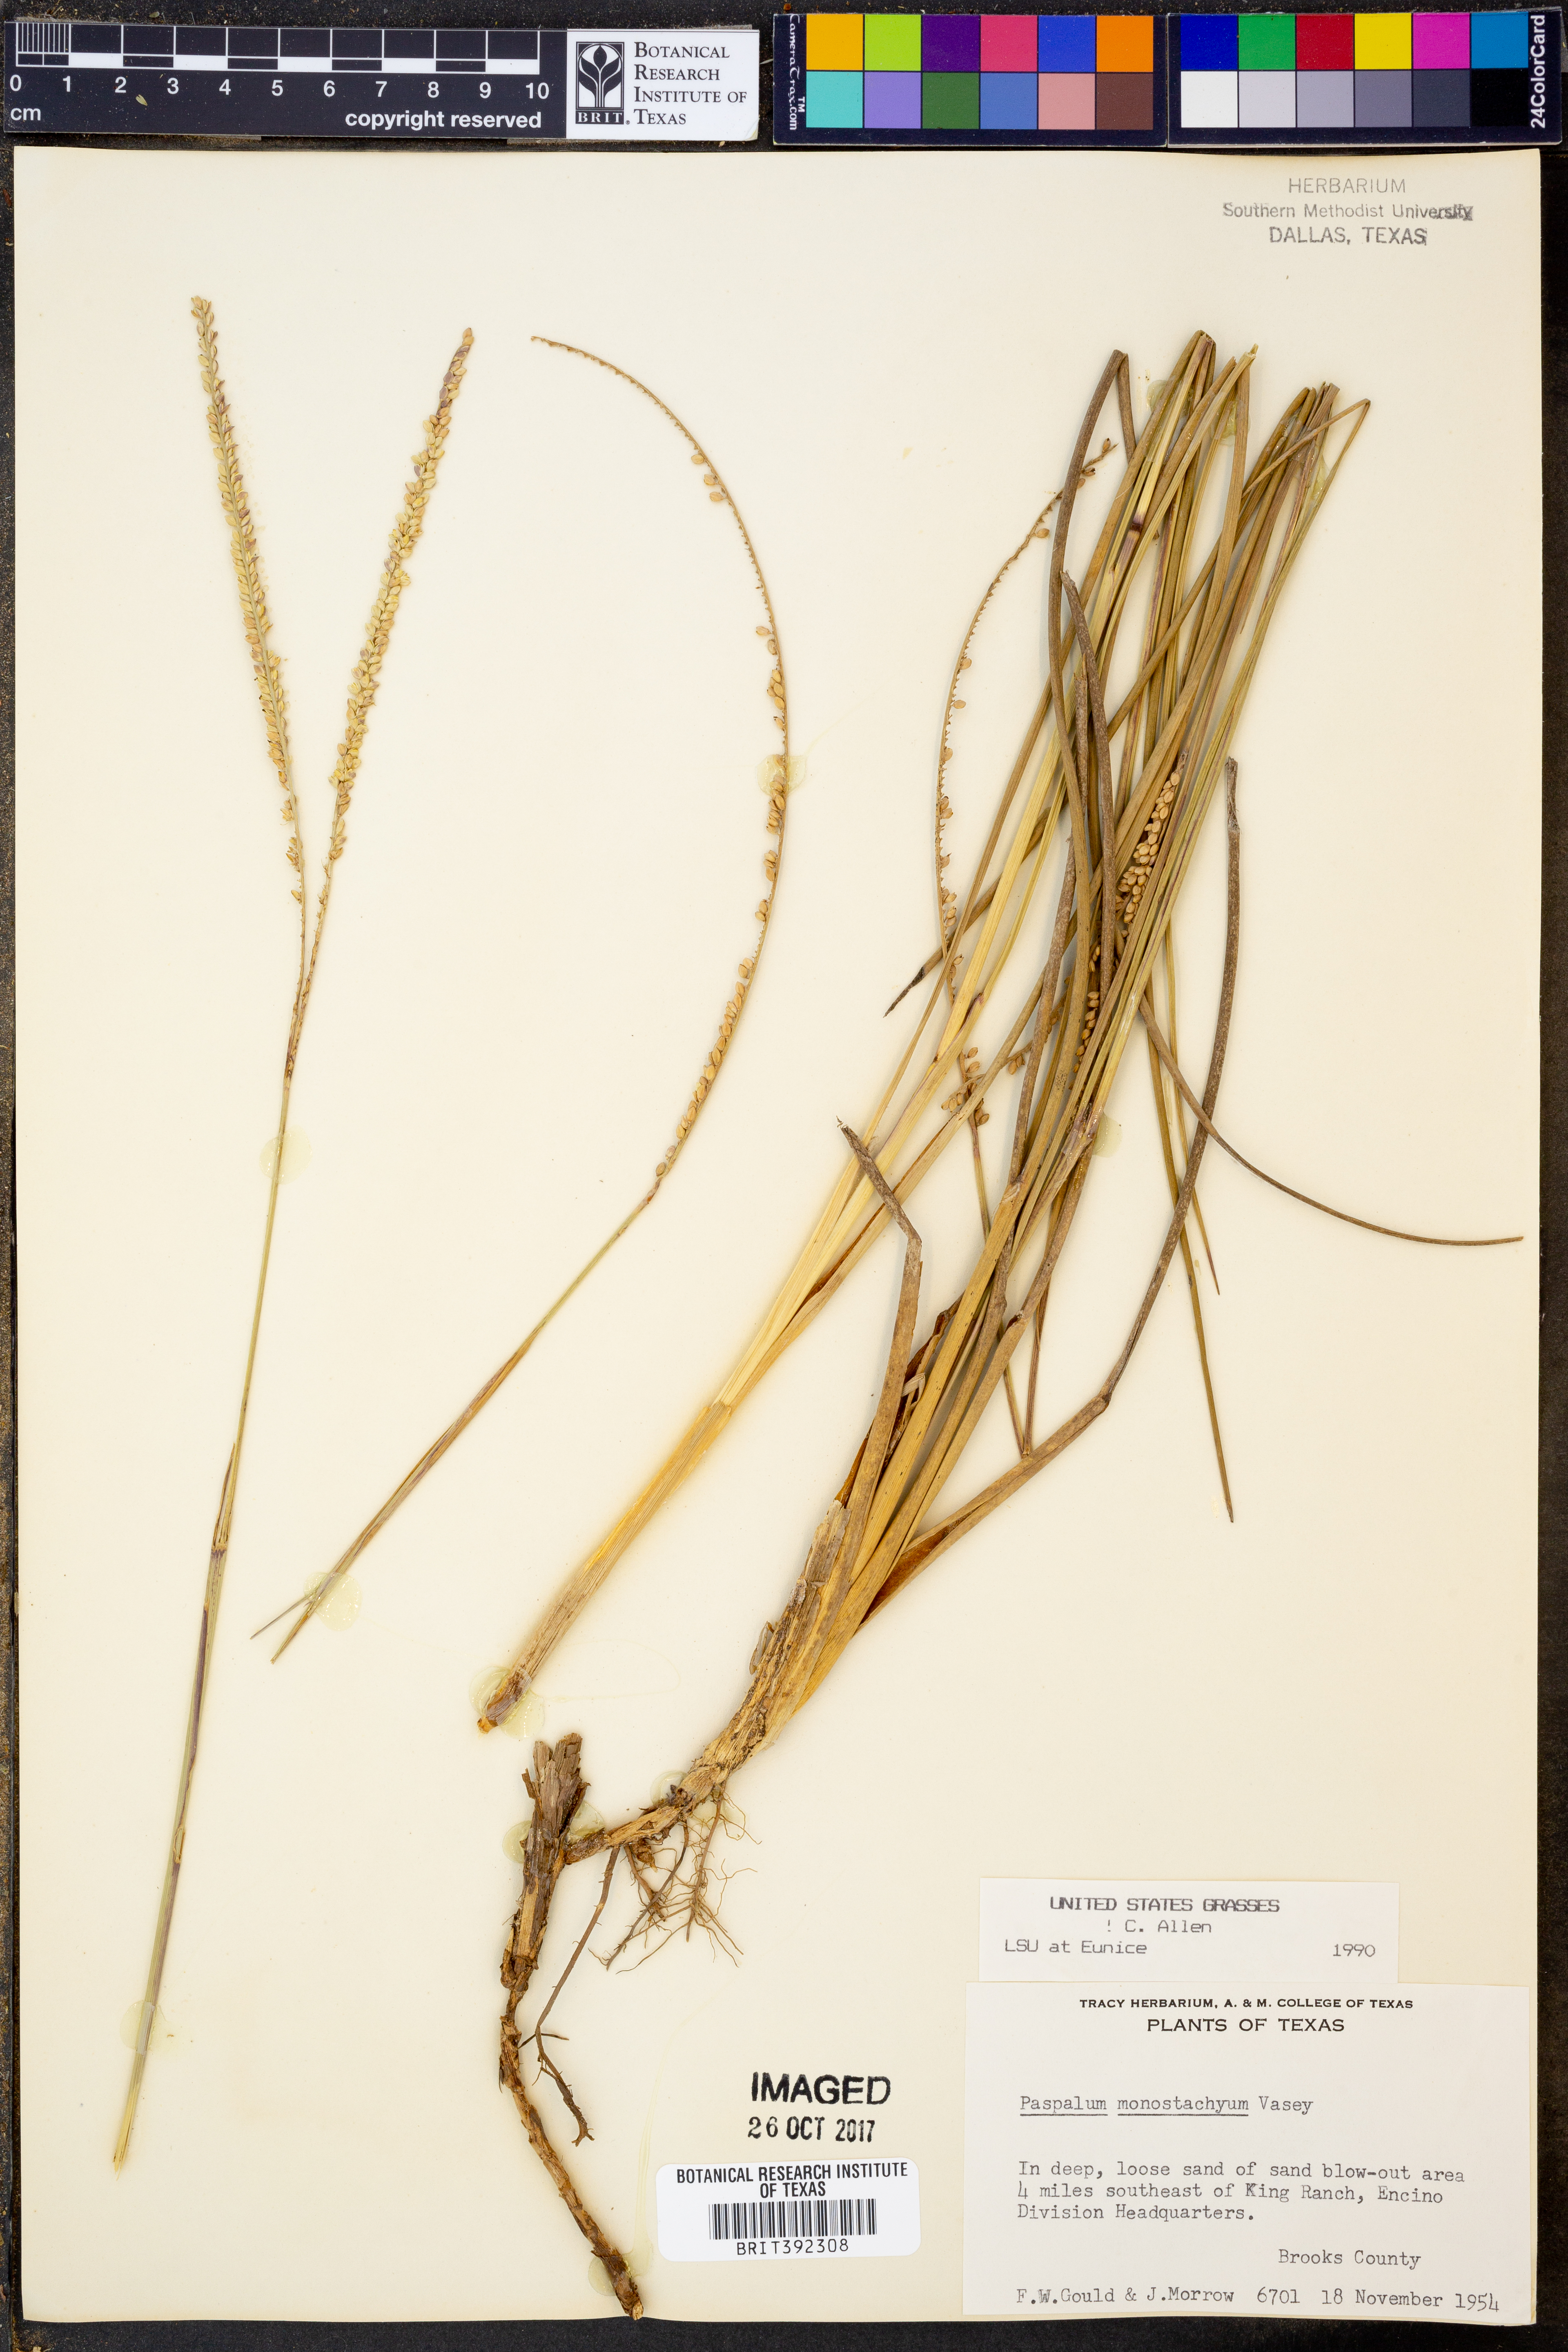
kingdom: Plantae
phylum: Tracheophyta
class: Liliopsida
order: Poales
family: Poaceae
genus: Paspalum
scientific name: Paspalum monostachyum
